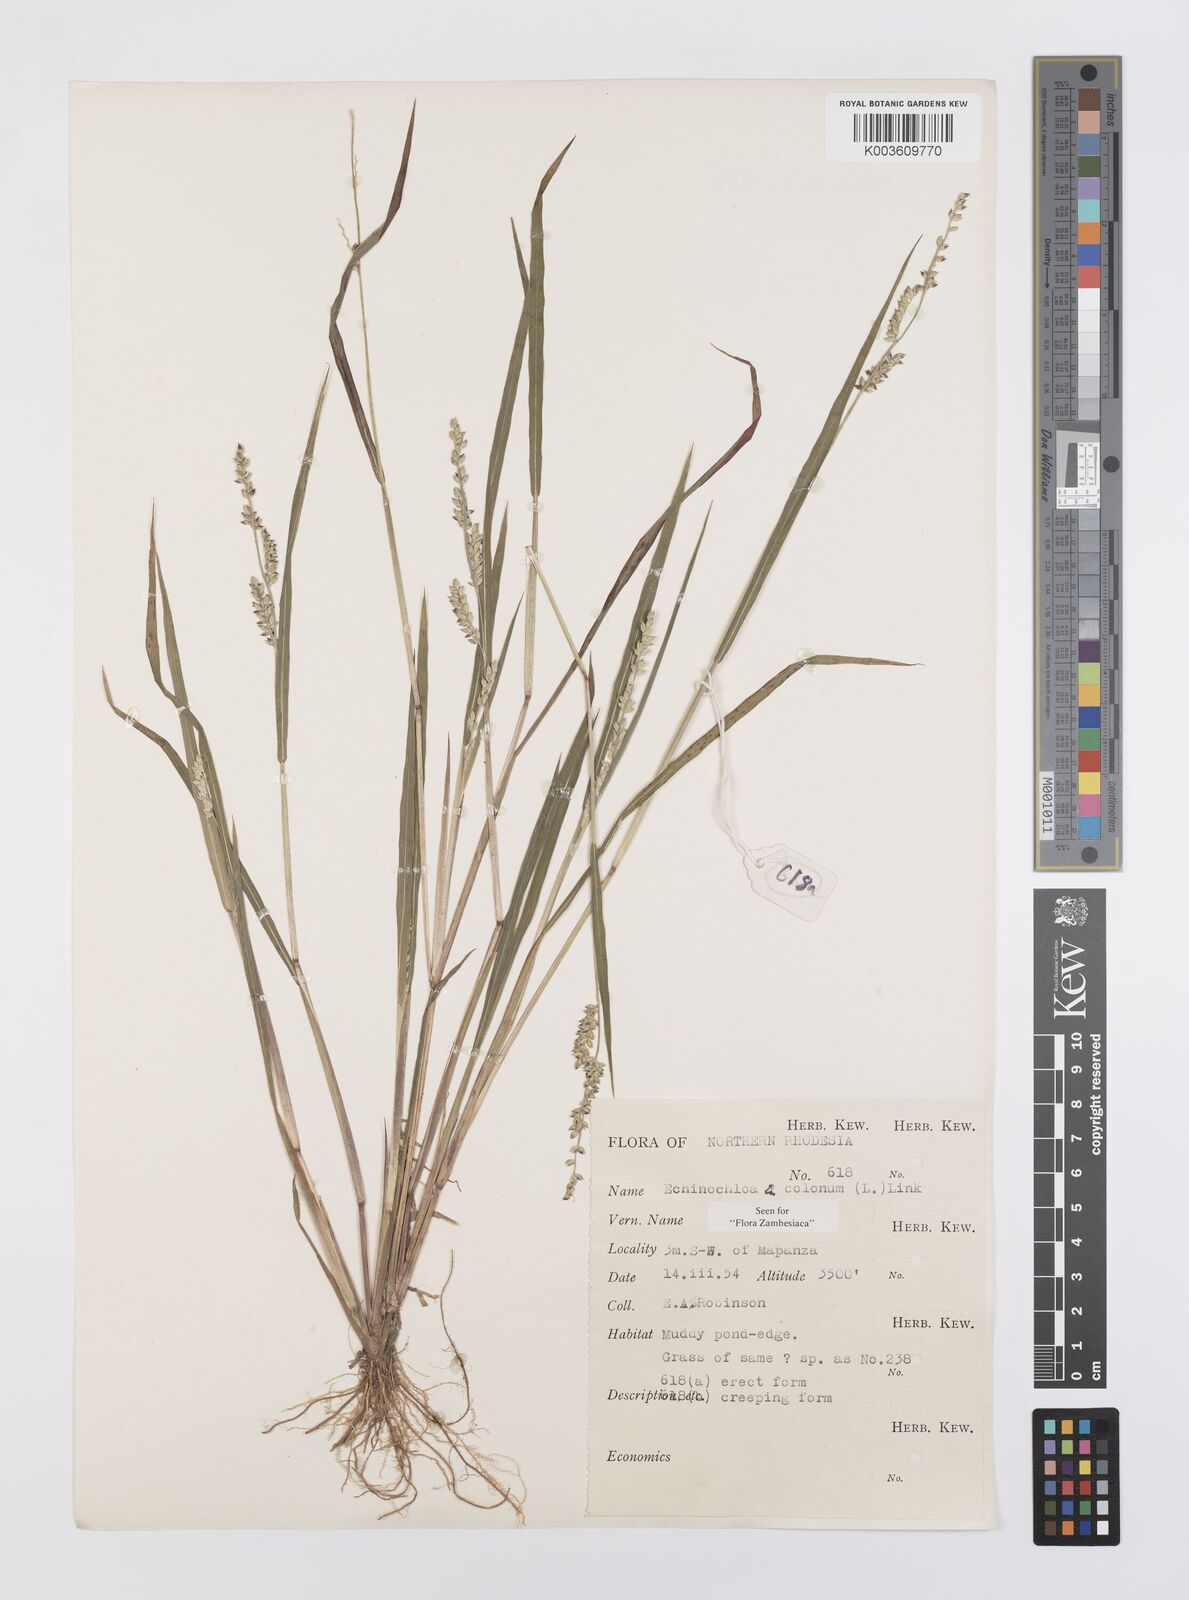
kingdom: Plantae
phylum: Tracheophyta
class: Liliopsida
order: Poales
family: Poaceae
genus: Echinochloa
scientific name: Echinochloa colonum
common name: Jungle rice
